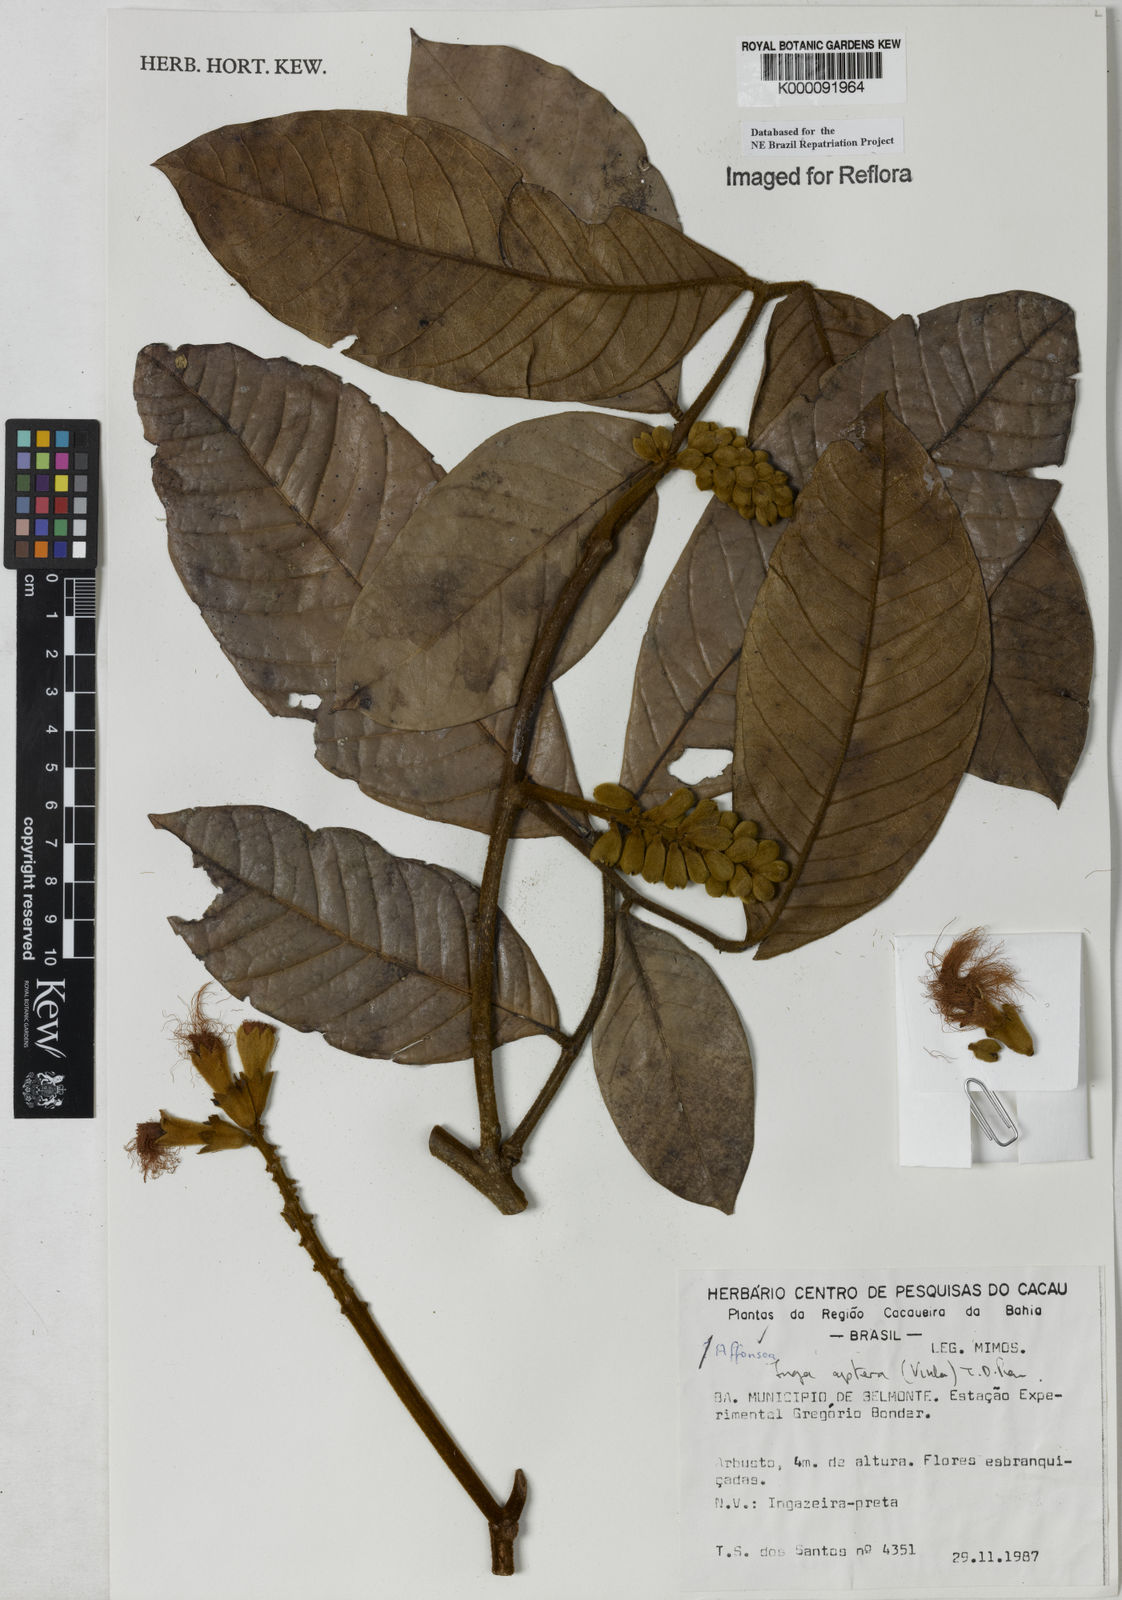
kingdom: Plantae
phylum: Tracheophyta
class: Magnoliopsida
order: Fabales
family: Fabaceae
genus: Inga
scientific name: Inga aptera
